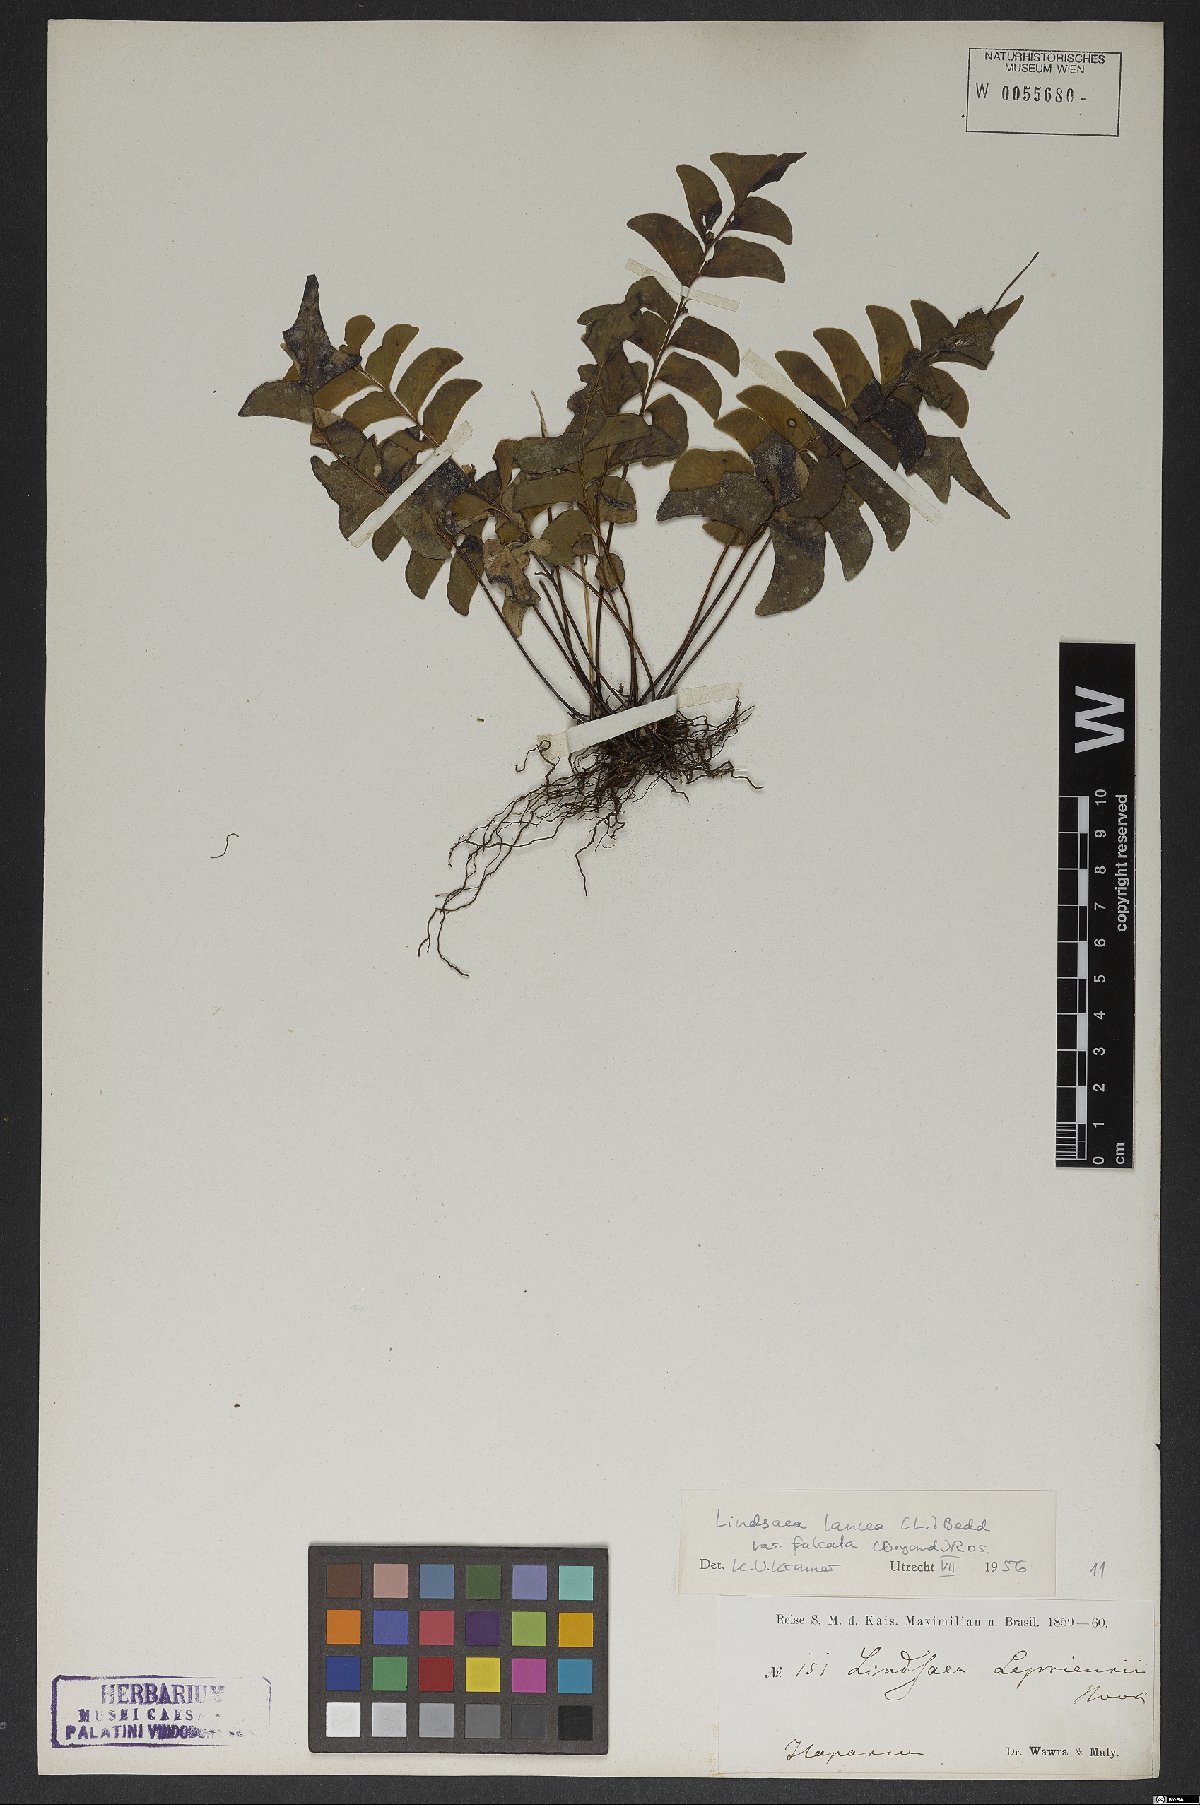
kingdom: Plantae
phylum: Tracheophyta
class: Polypodiopsida
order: Polypodiales
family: Lindsaeaceae
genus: Lindsaea
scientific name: Lindsaea falcata
